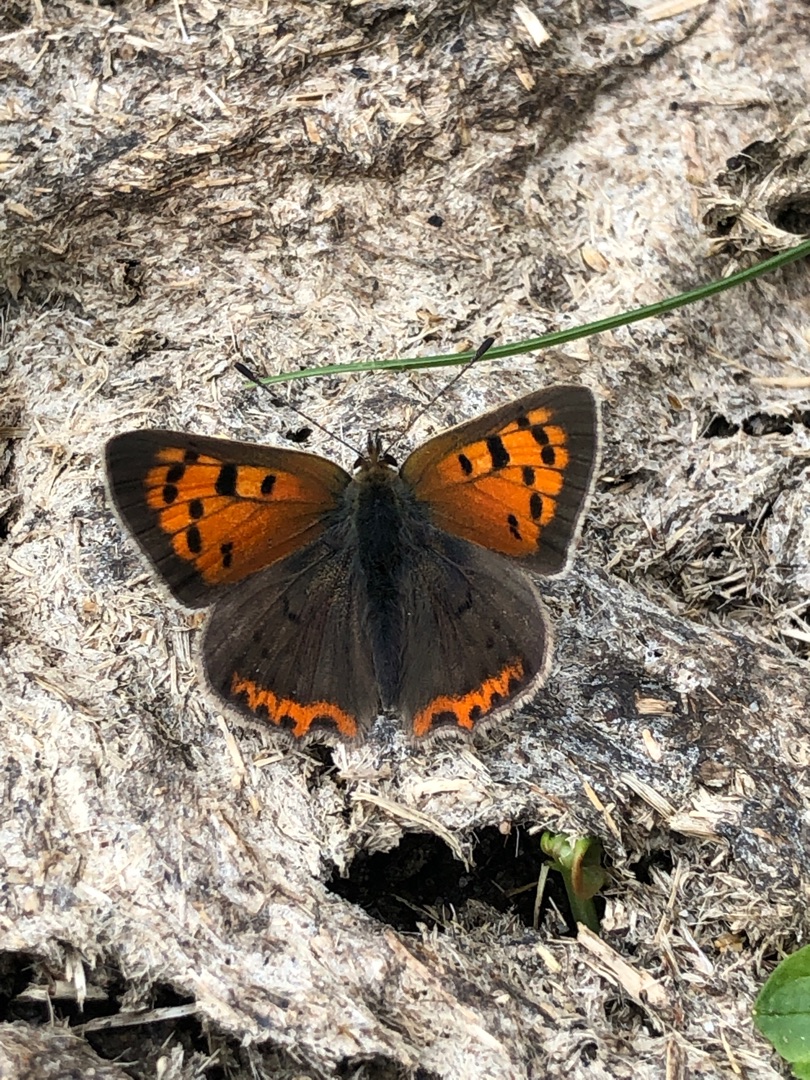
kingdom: Animalia
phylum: Arthropoda
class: Insecta
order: Lepidoptera
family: Lycaenidae
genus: Lycaena
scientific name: Lycaena phlaeas
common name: Lille ildfugl
